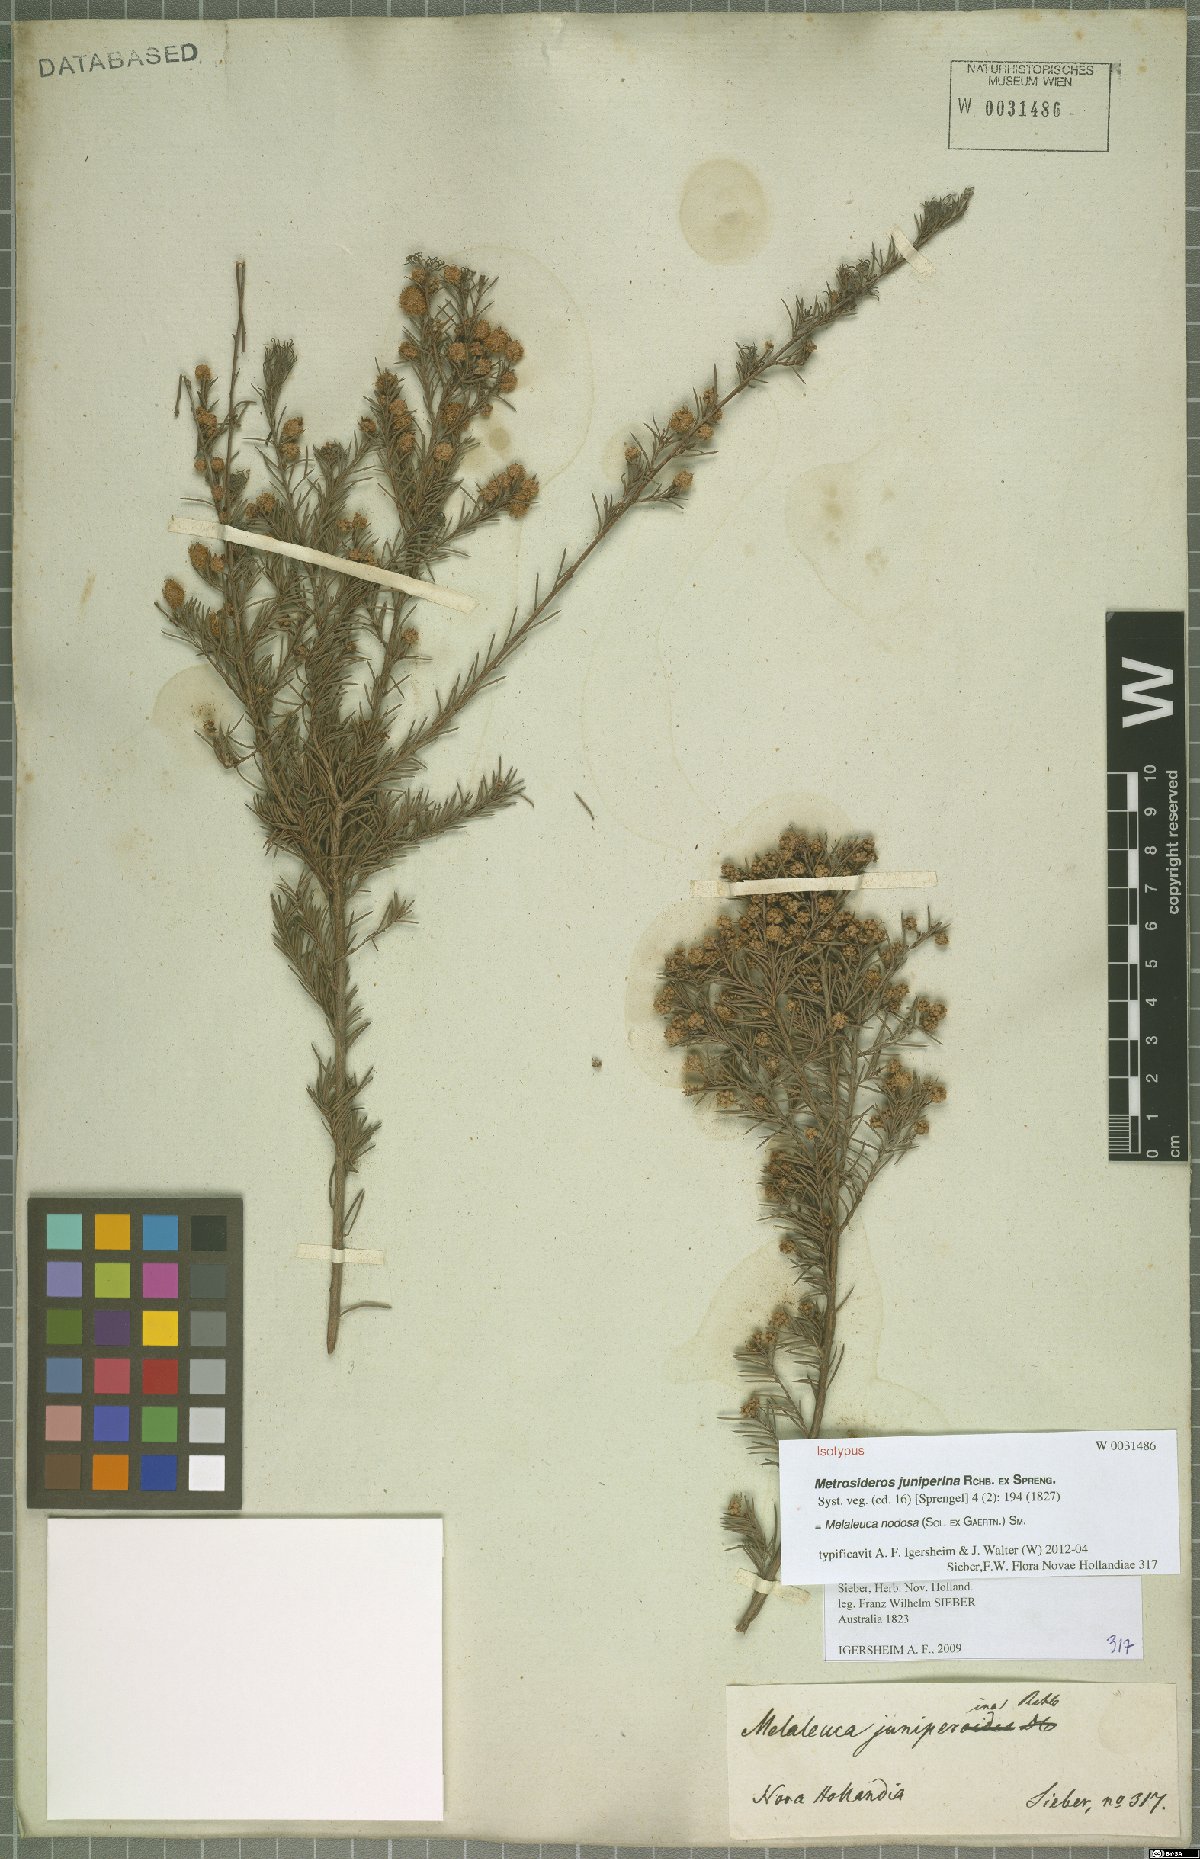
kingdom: Plantae
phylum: Tracheophyta
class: Magnoliopsida
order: Myrtales
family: Myrtaceae
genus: Melaleuca
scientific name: Melaleuca nodosa
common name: Prickly-leaf paperbark
